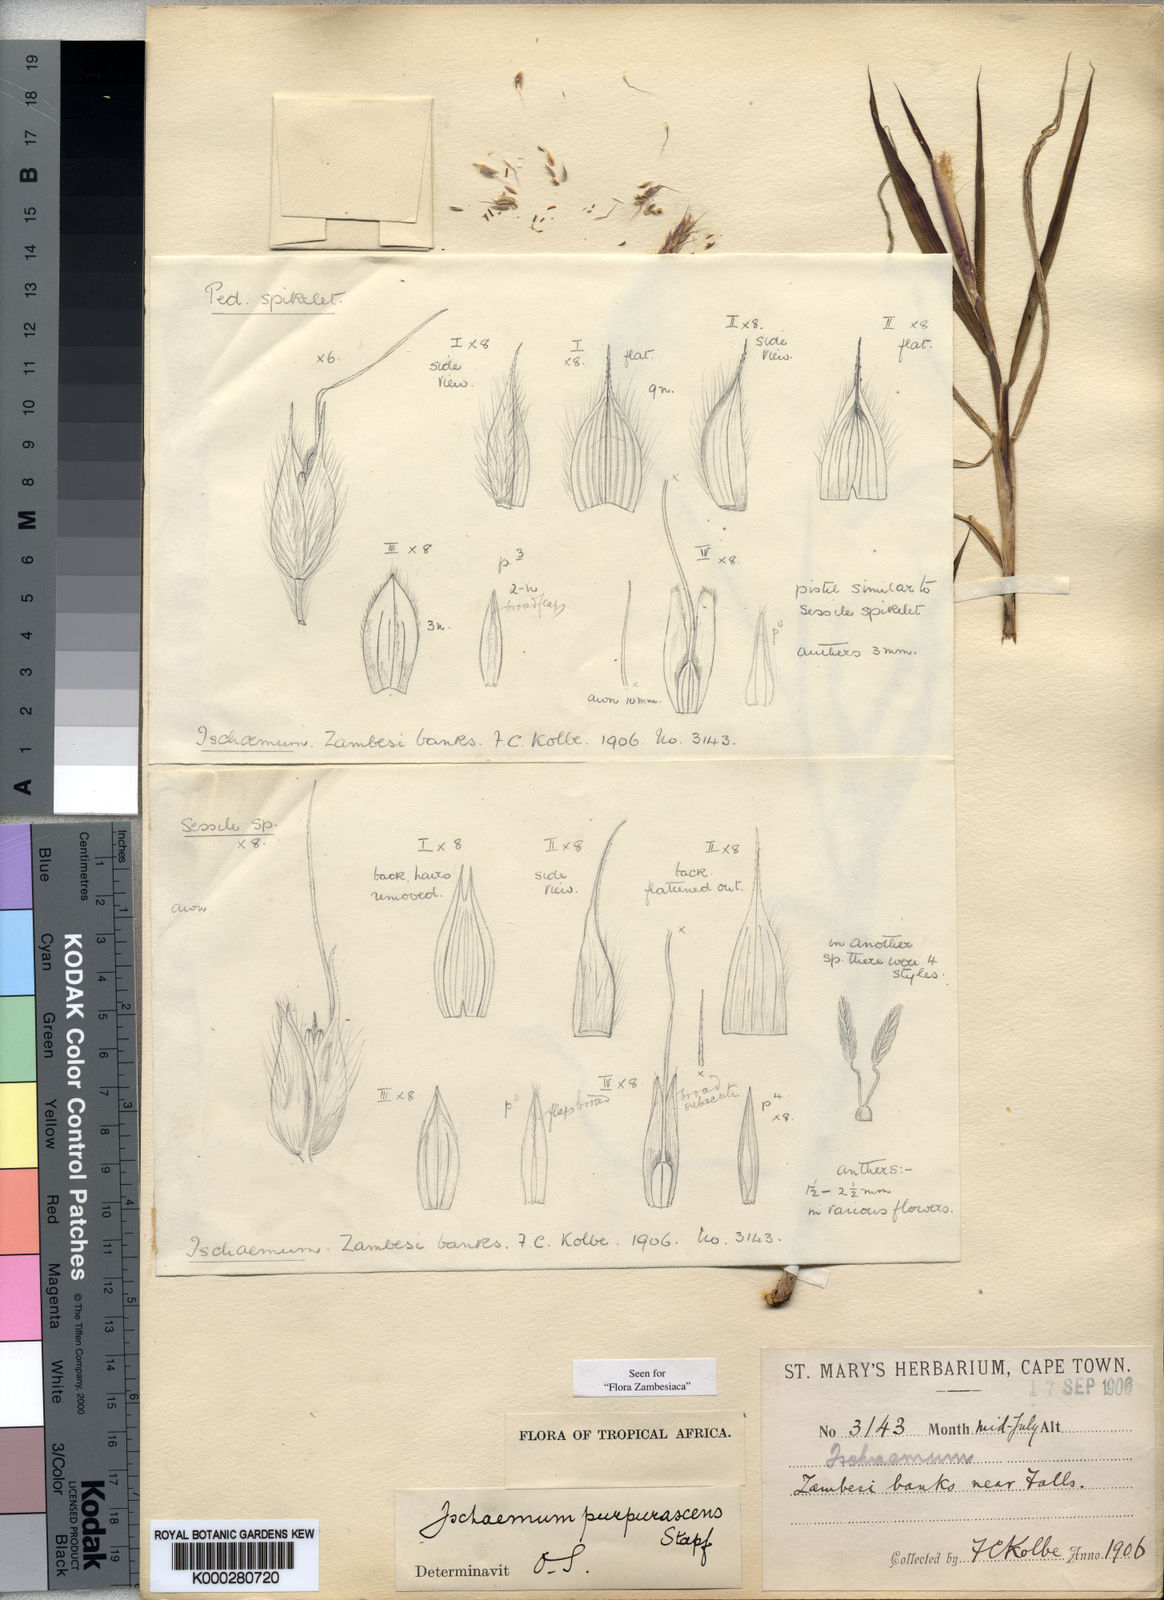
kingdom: Plantae
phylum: Tracheophyta
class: Liliopsida
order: Poales
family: Poaceae
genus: Ischaemum
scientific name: Ischaemum polystachyum
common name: Paddle grass
